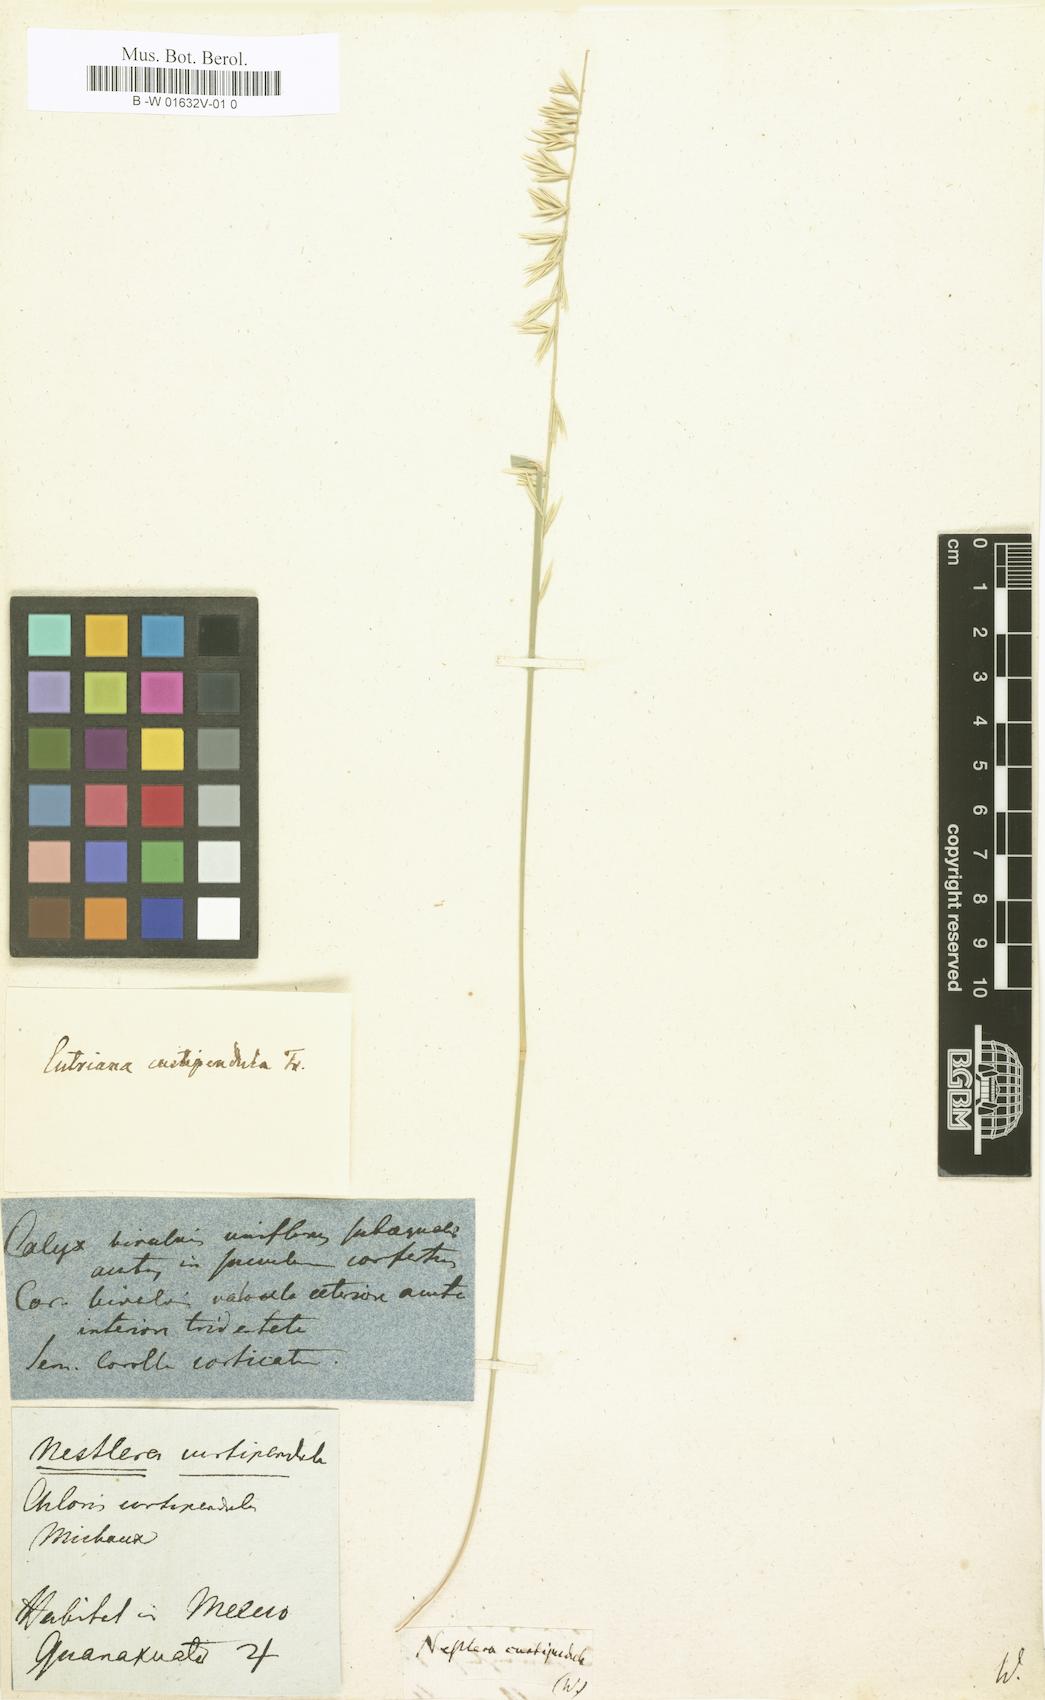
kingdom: Plantae
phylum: Tracheophyta
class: Magnoliopsida
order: Asterales
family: Asteraceae
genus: Nestlera
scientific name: Nestlera
